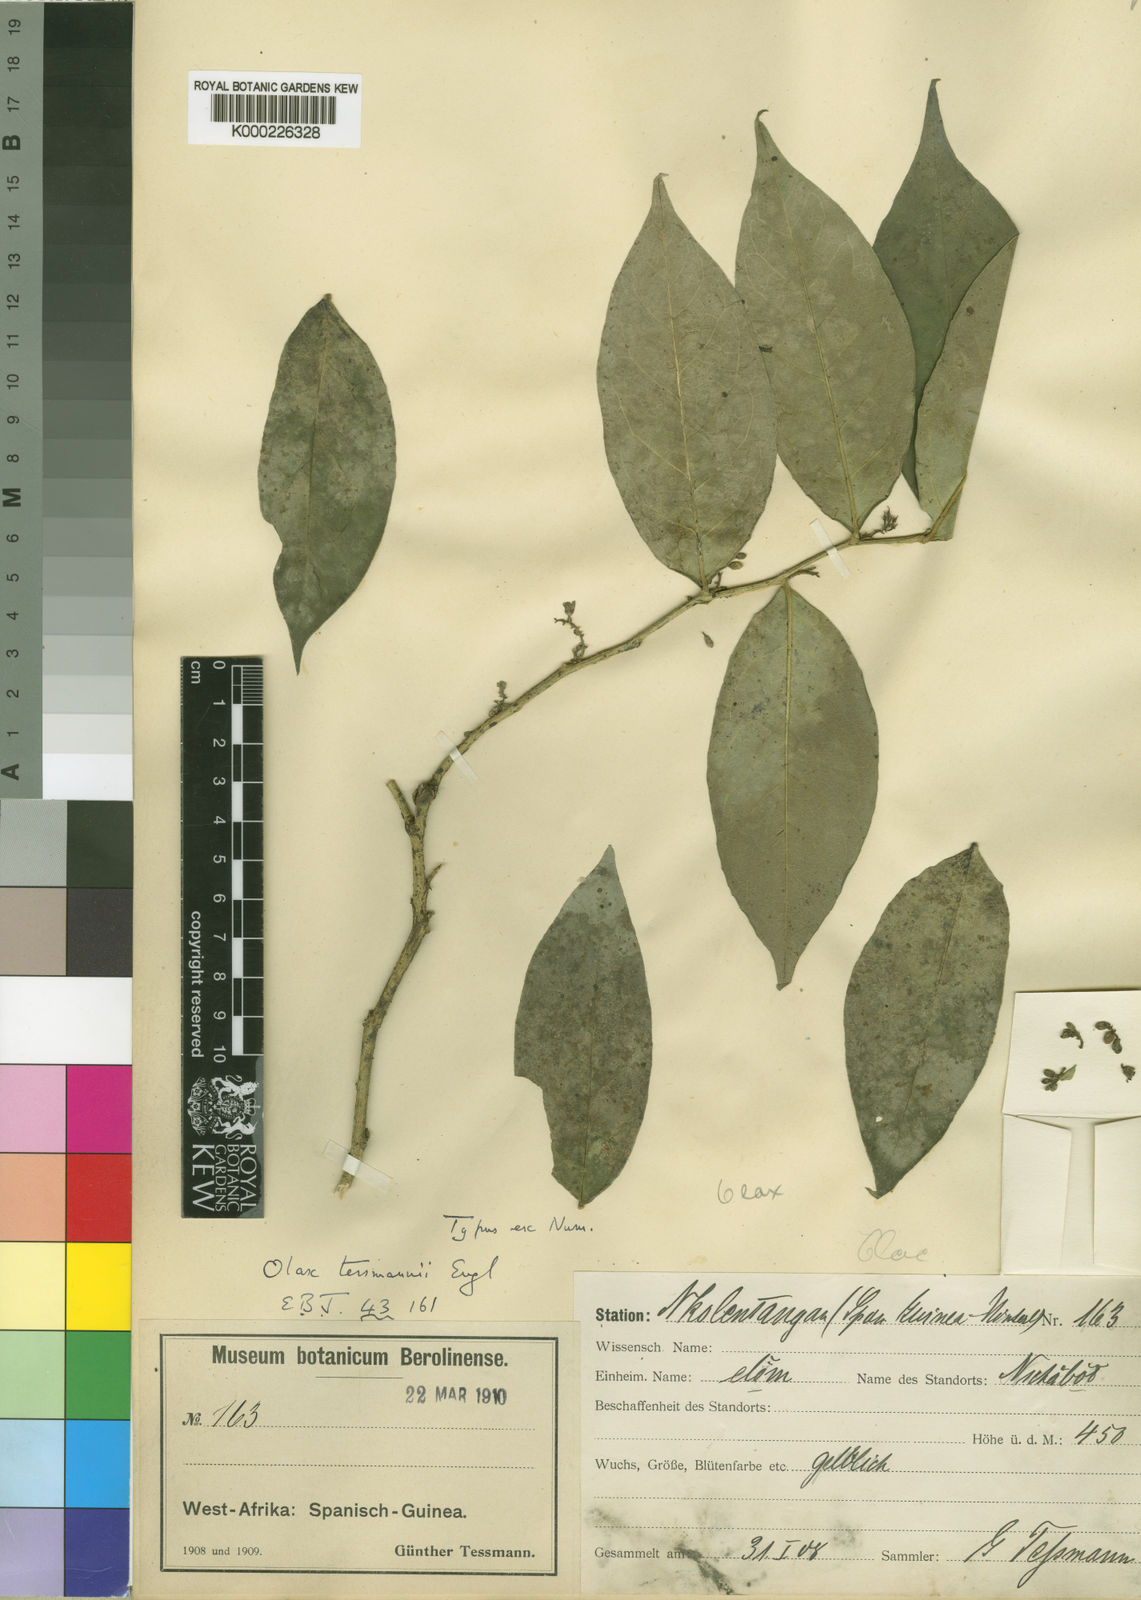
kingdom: Plantae
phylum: Tracheophyta
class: Magnoliopsida
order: Santalales
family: Olacaceae
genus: Olax
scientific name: Olax latifolia
